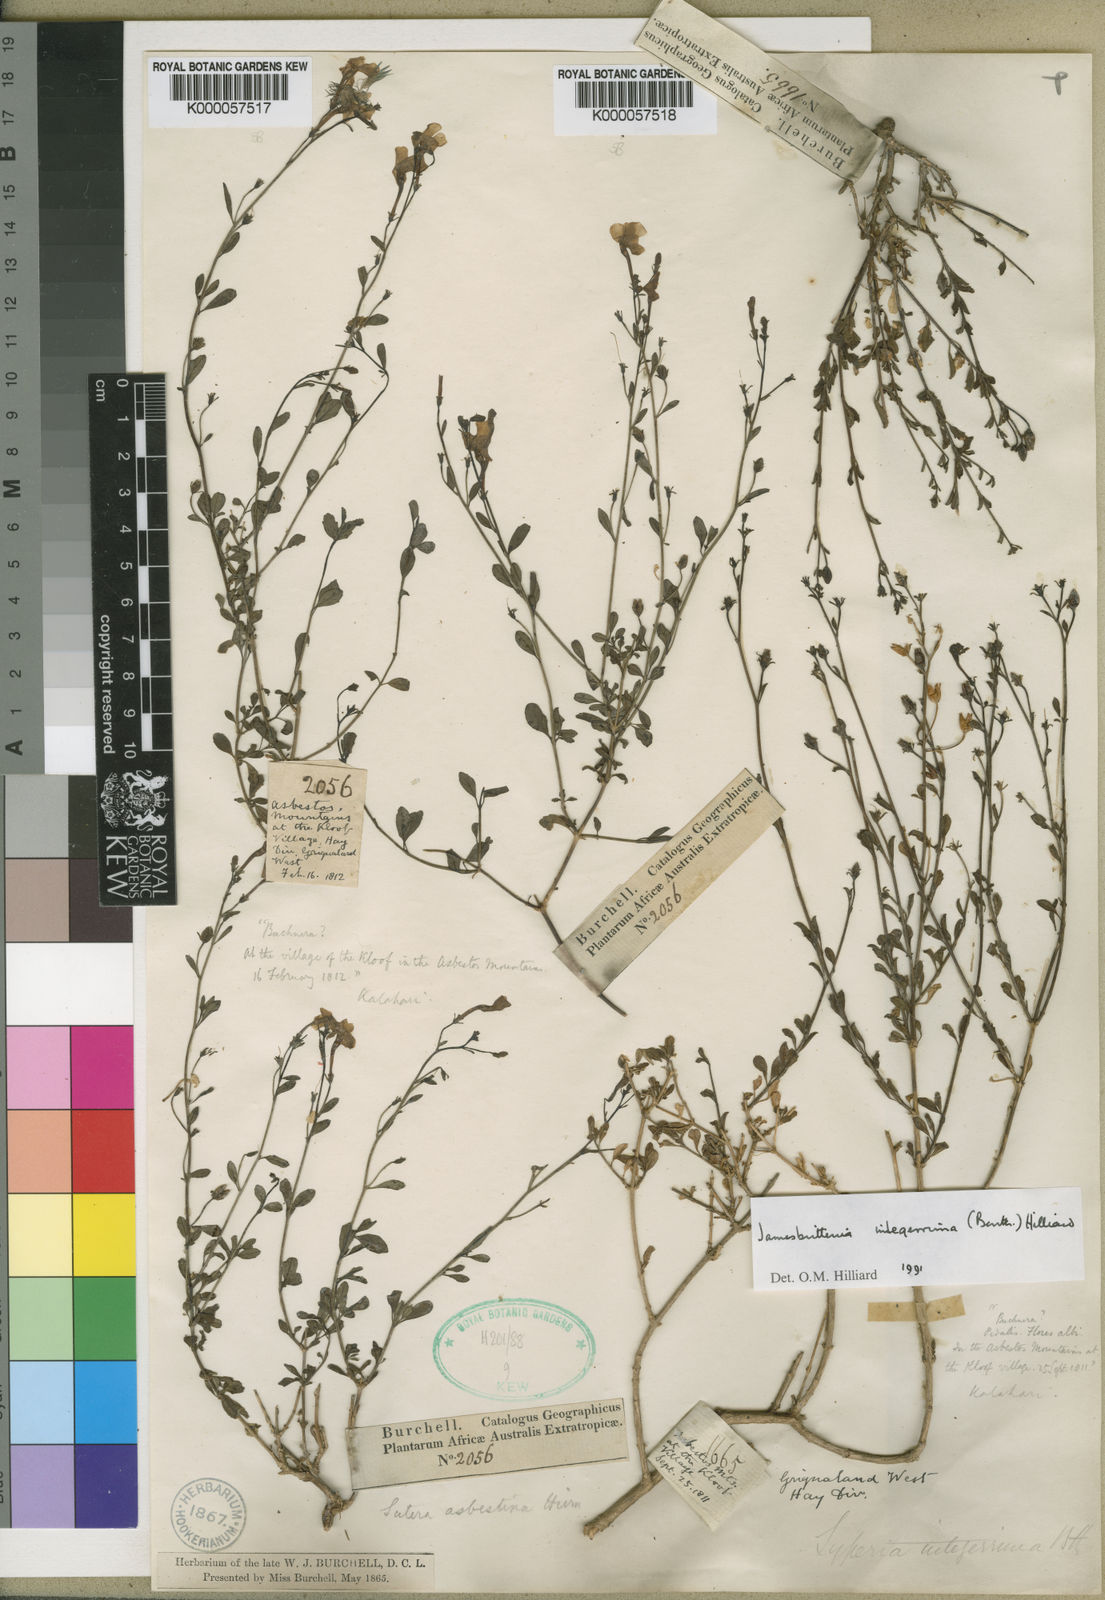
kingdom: Plantae
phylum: Tracheophyta
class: Magnoliopsida
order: Lamiales
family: Scrophulariaceae
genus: Jamesbrittenia
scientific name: Jamesbrittenia integerrima
